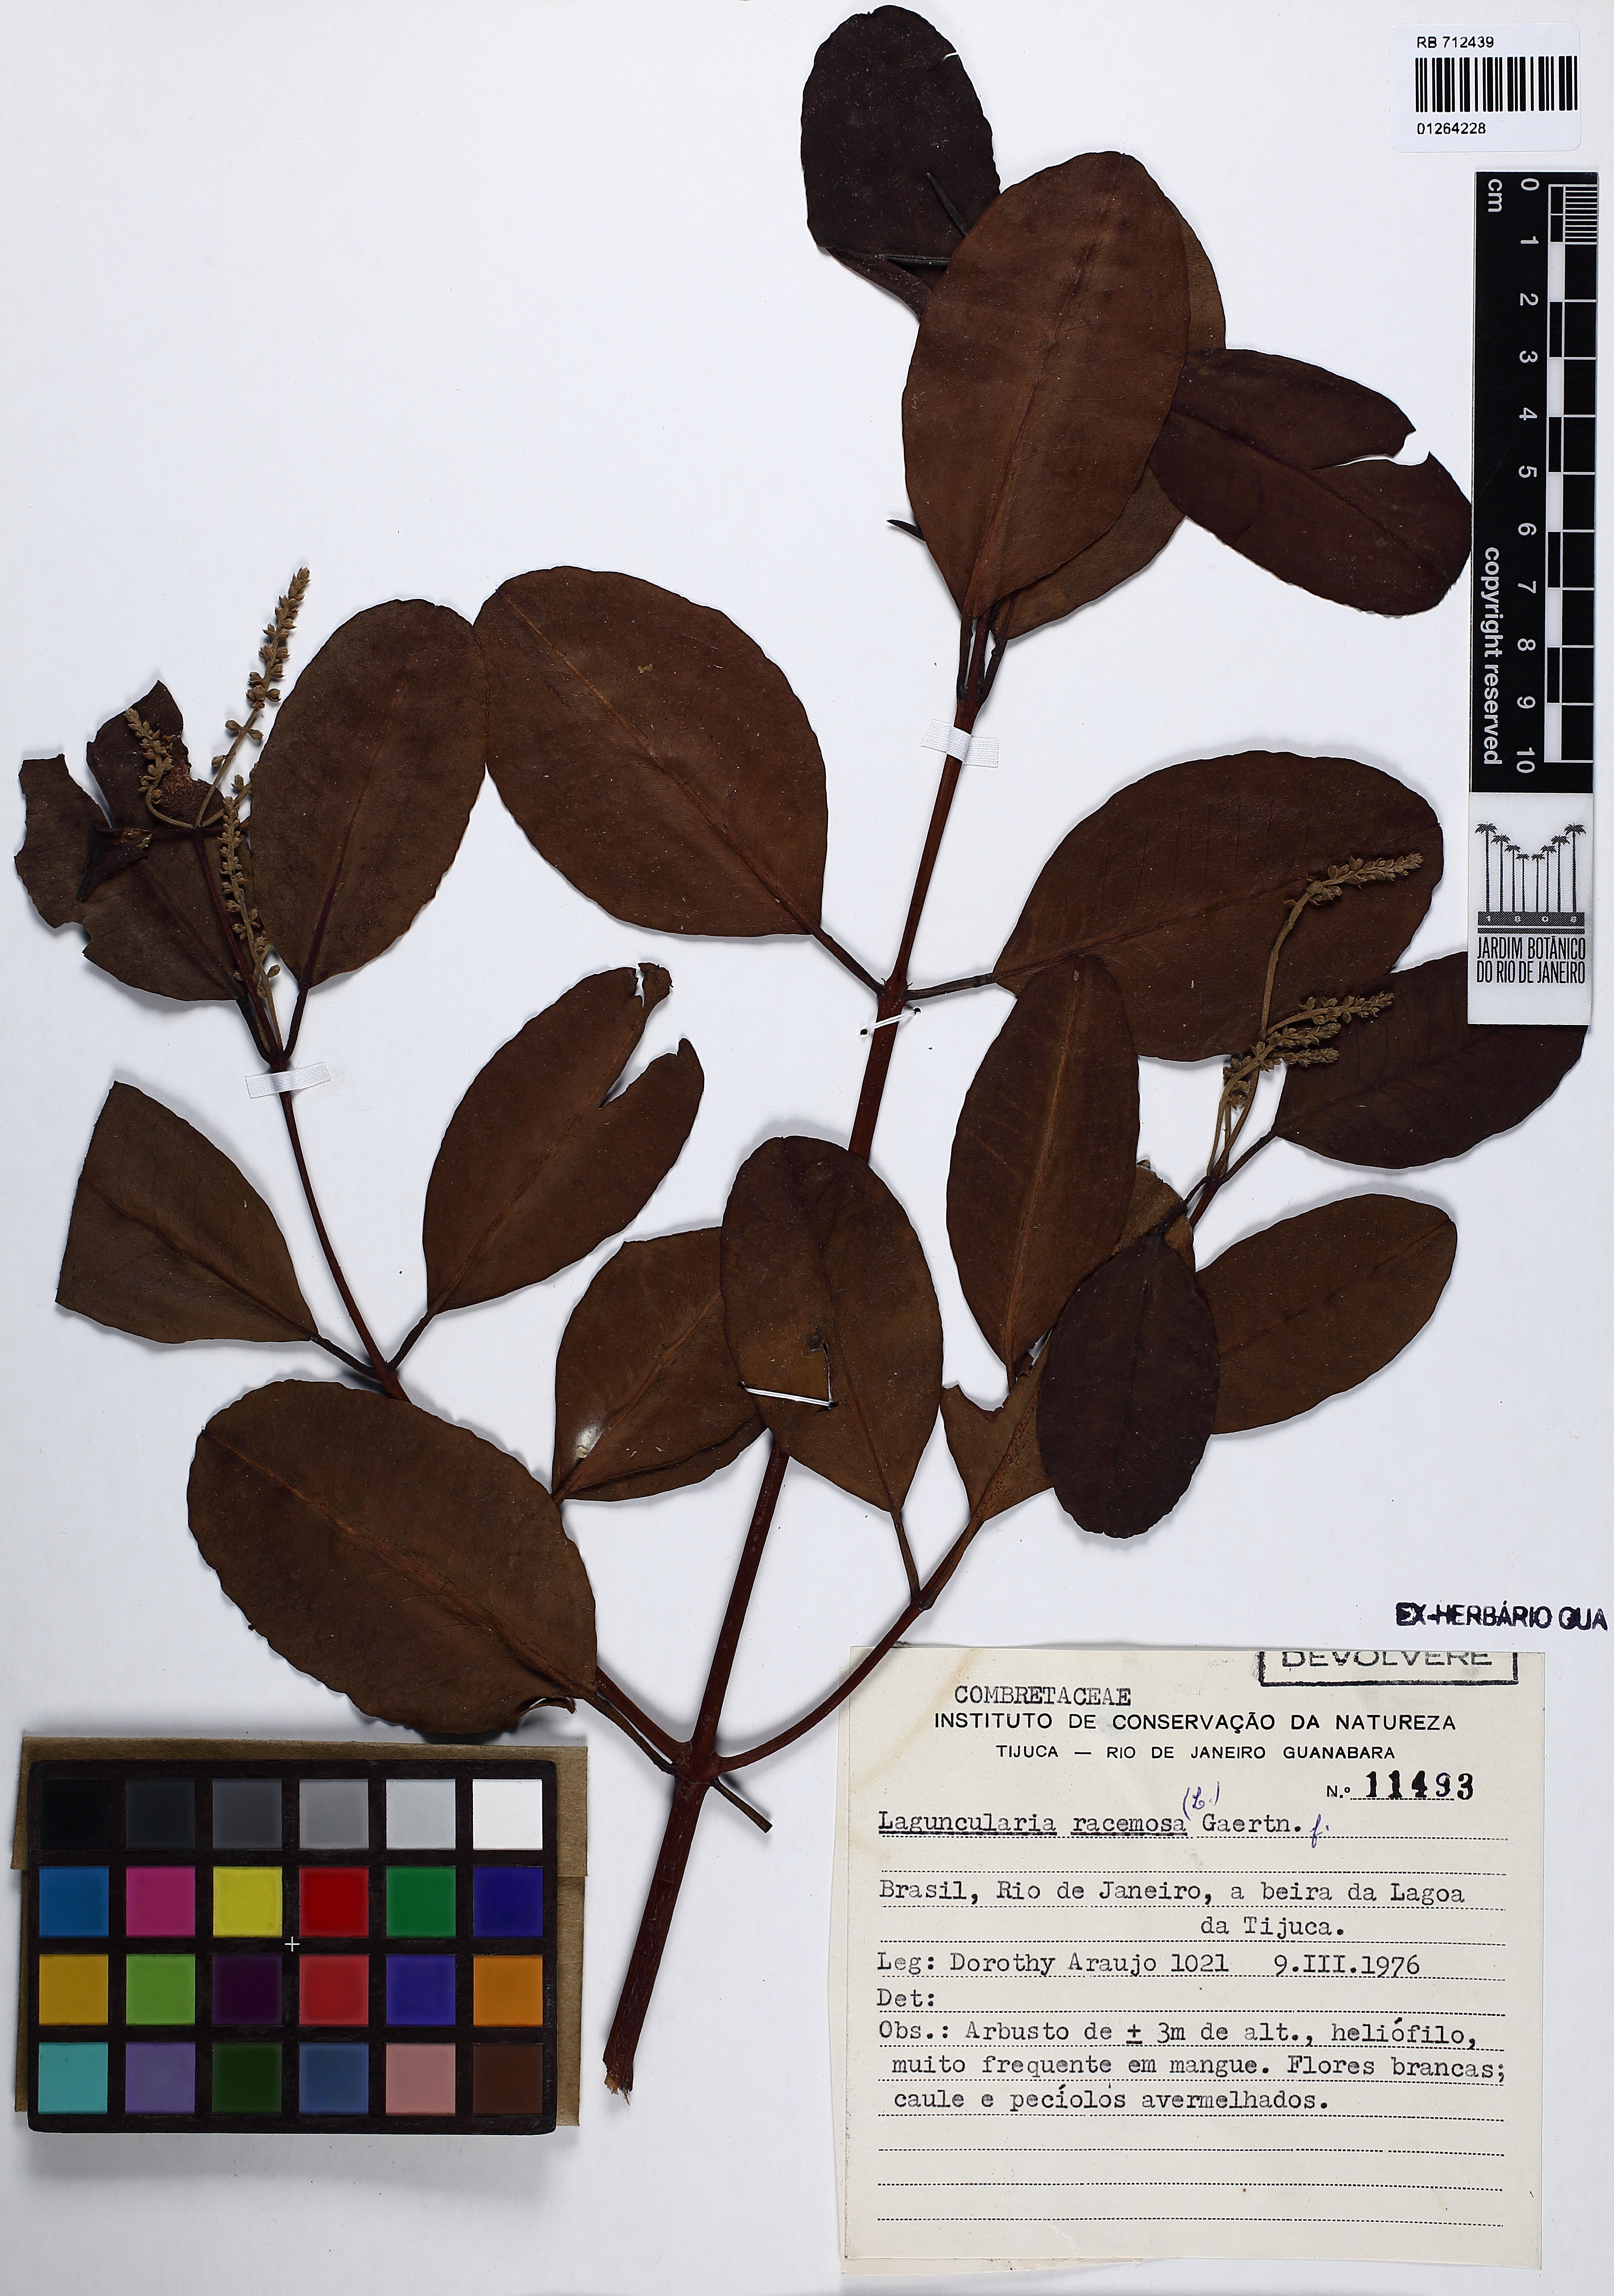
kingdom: Plantae
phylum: Tracheophyta
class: Magnoliopsida
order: Myrtales
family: Combretaceae
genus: Laguncularia
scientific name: Laguncularia racemosa
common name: White mangrove
